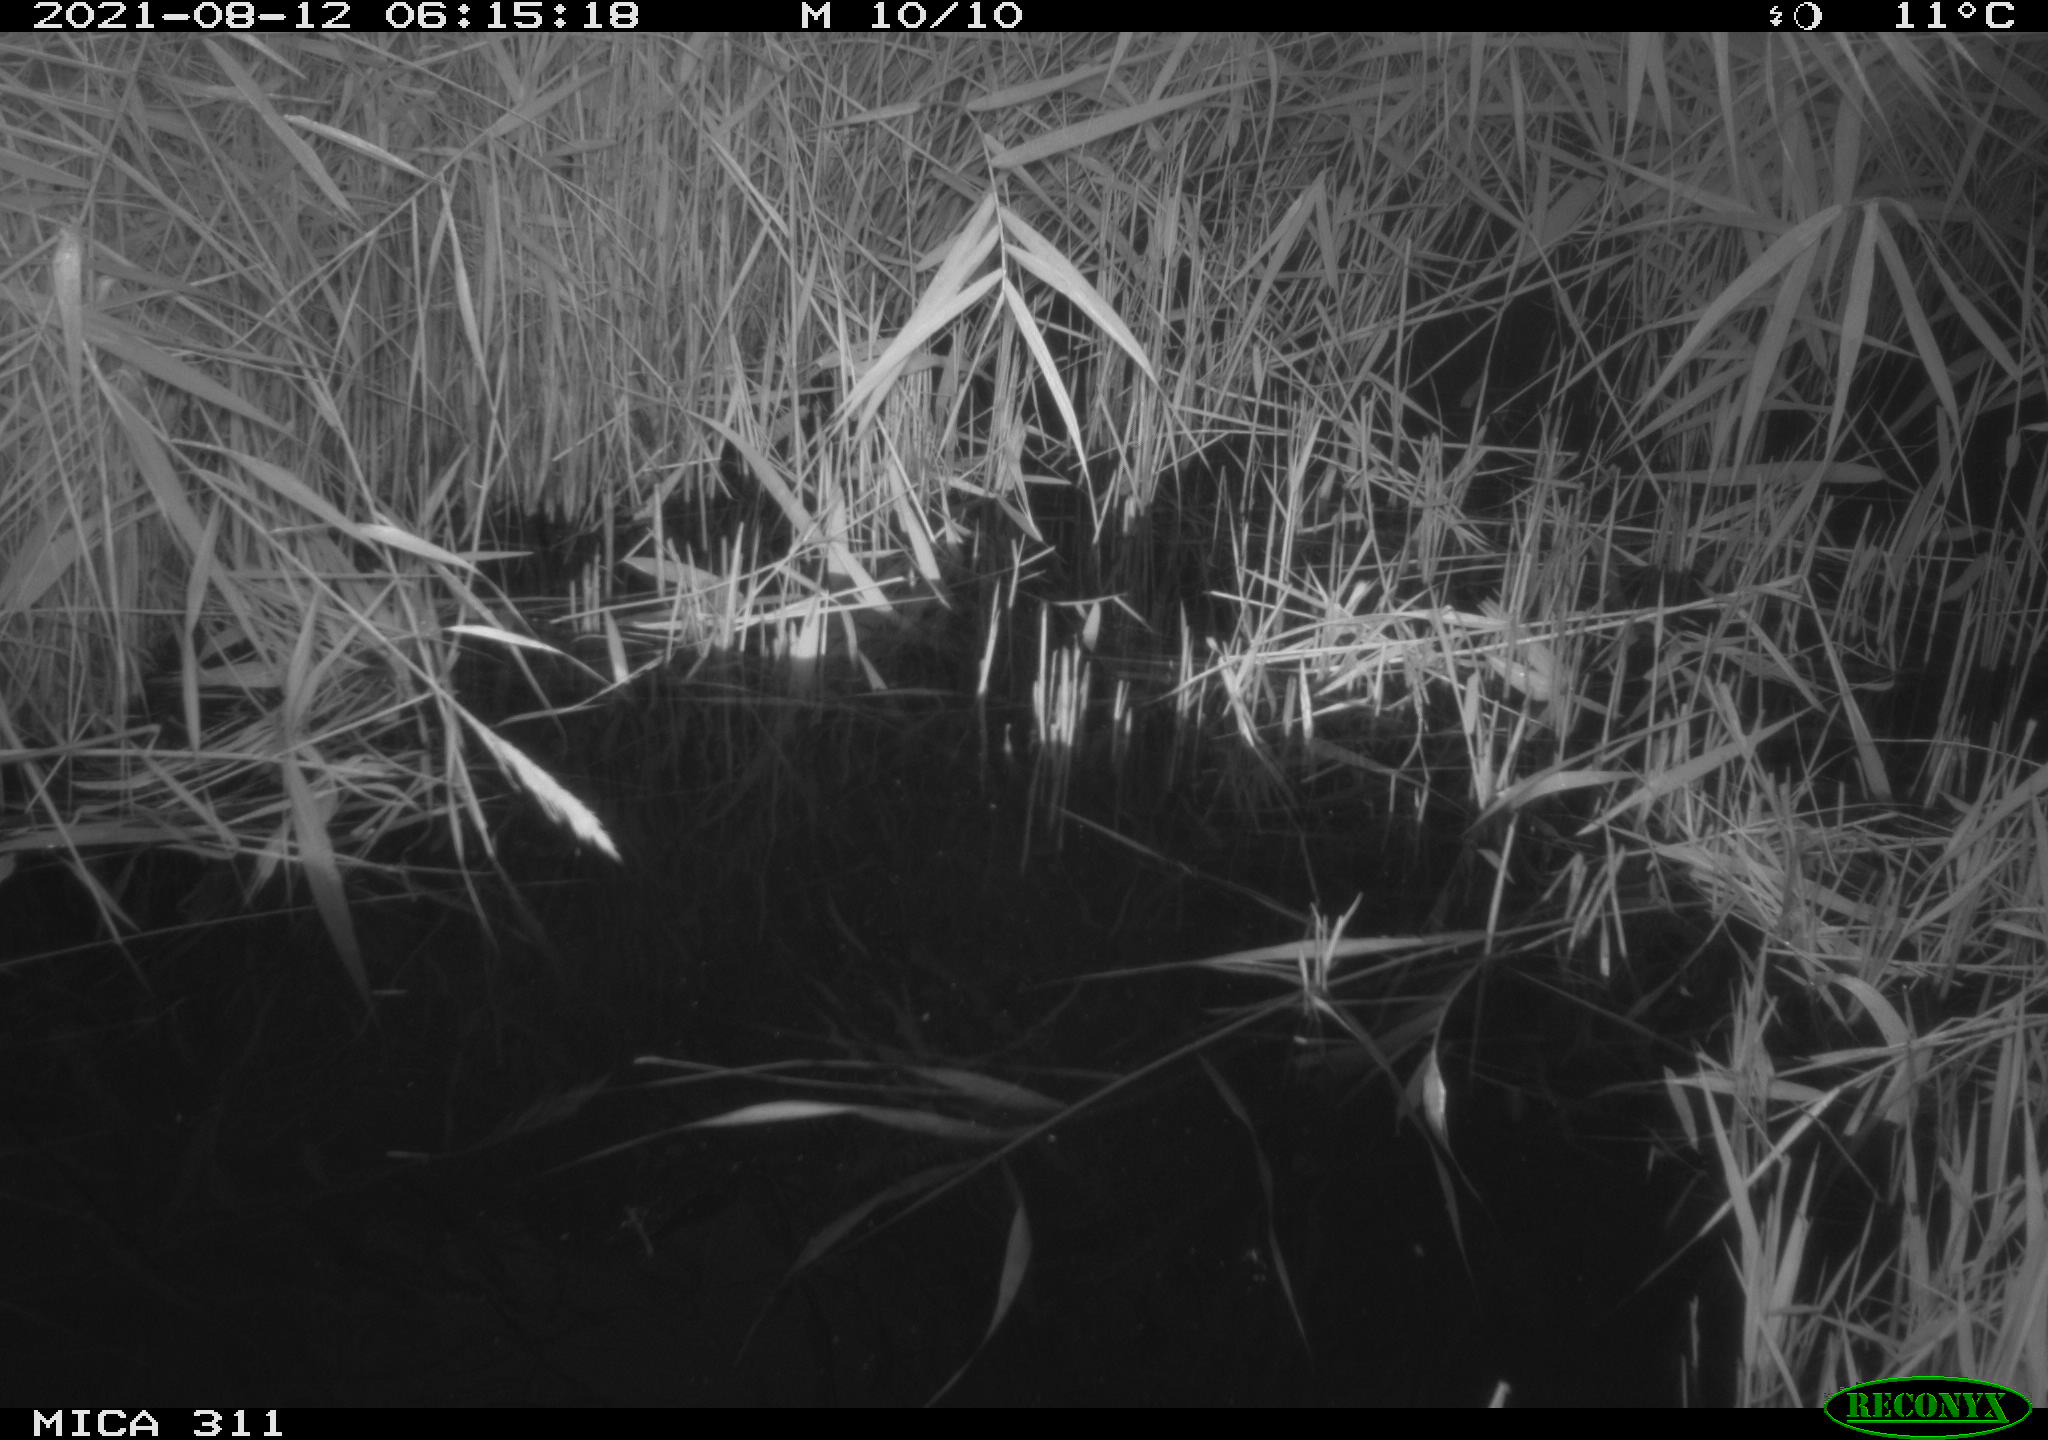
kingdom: Animalia
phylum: Chordata
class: Mammalia
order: Rodentia
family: Muridae
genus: Rattus
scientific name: Rattus norvegicus
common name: Brown rat
